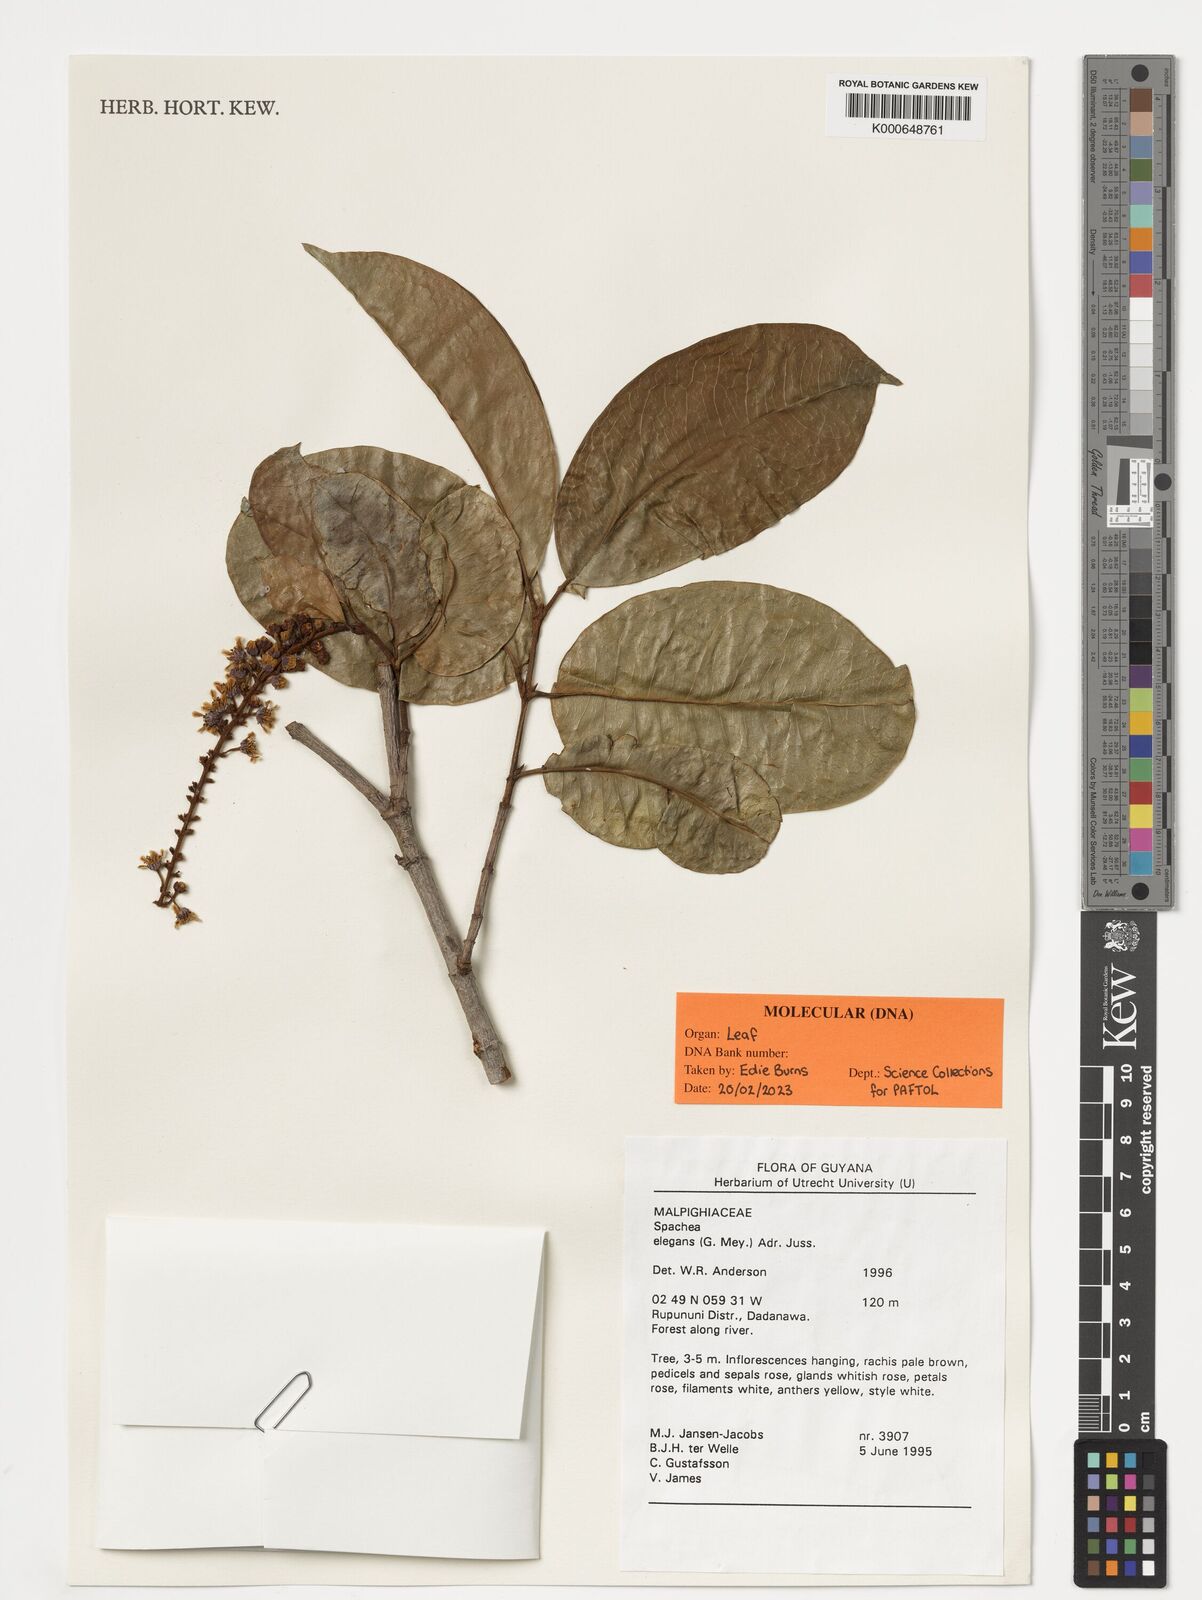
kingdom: Plantae
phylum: Tracheophyta
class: Magnoliopsida
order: Malpighiales
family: Malpighiaceae
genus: Spachea
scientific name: Spachea elegans
